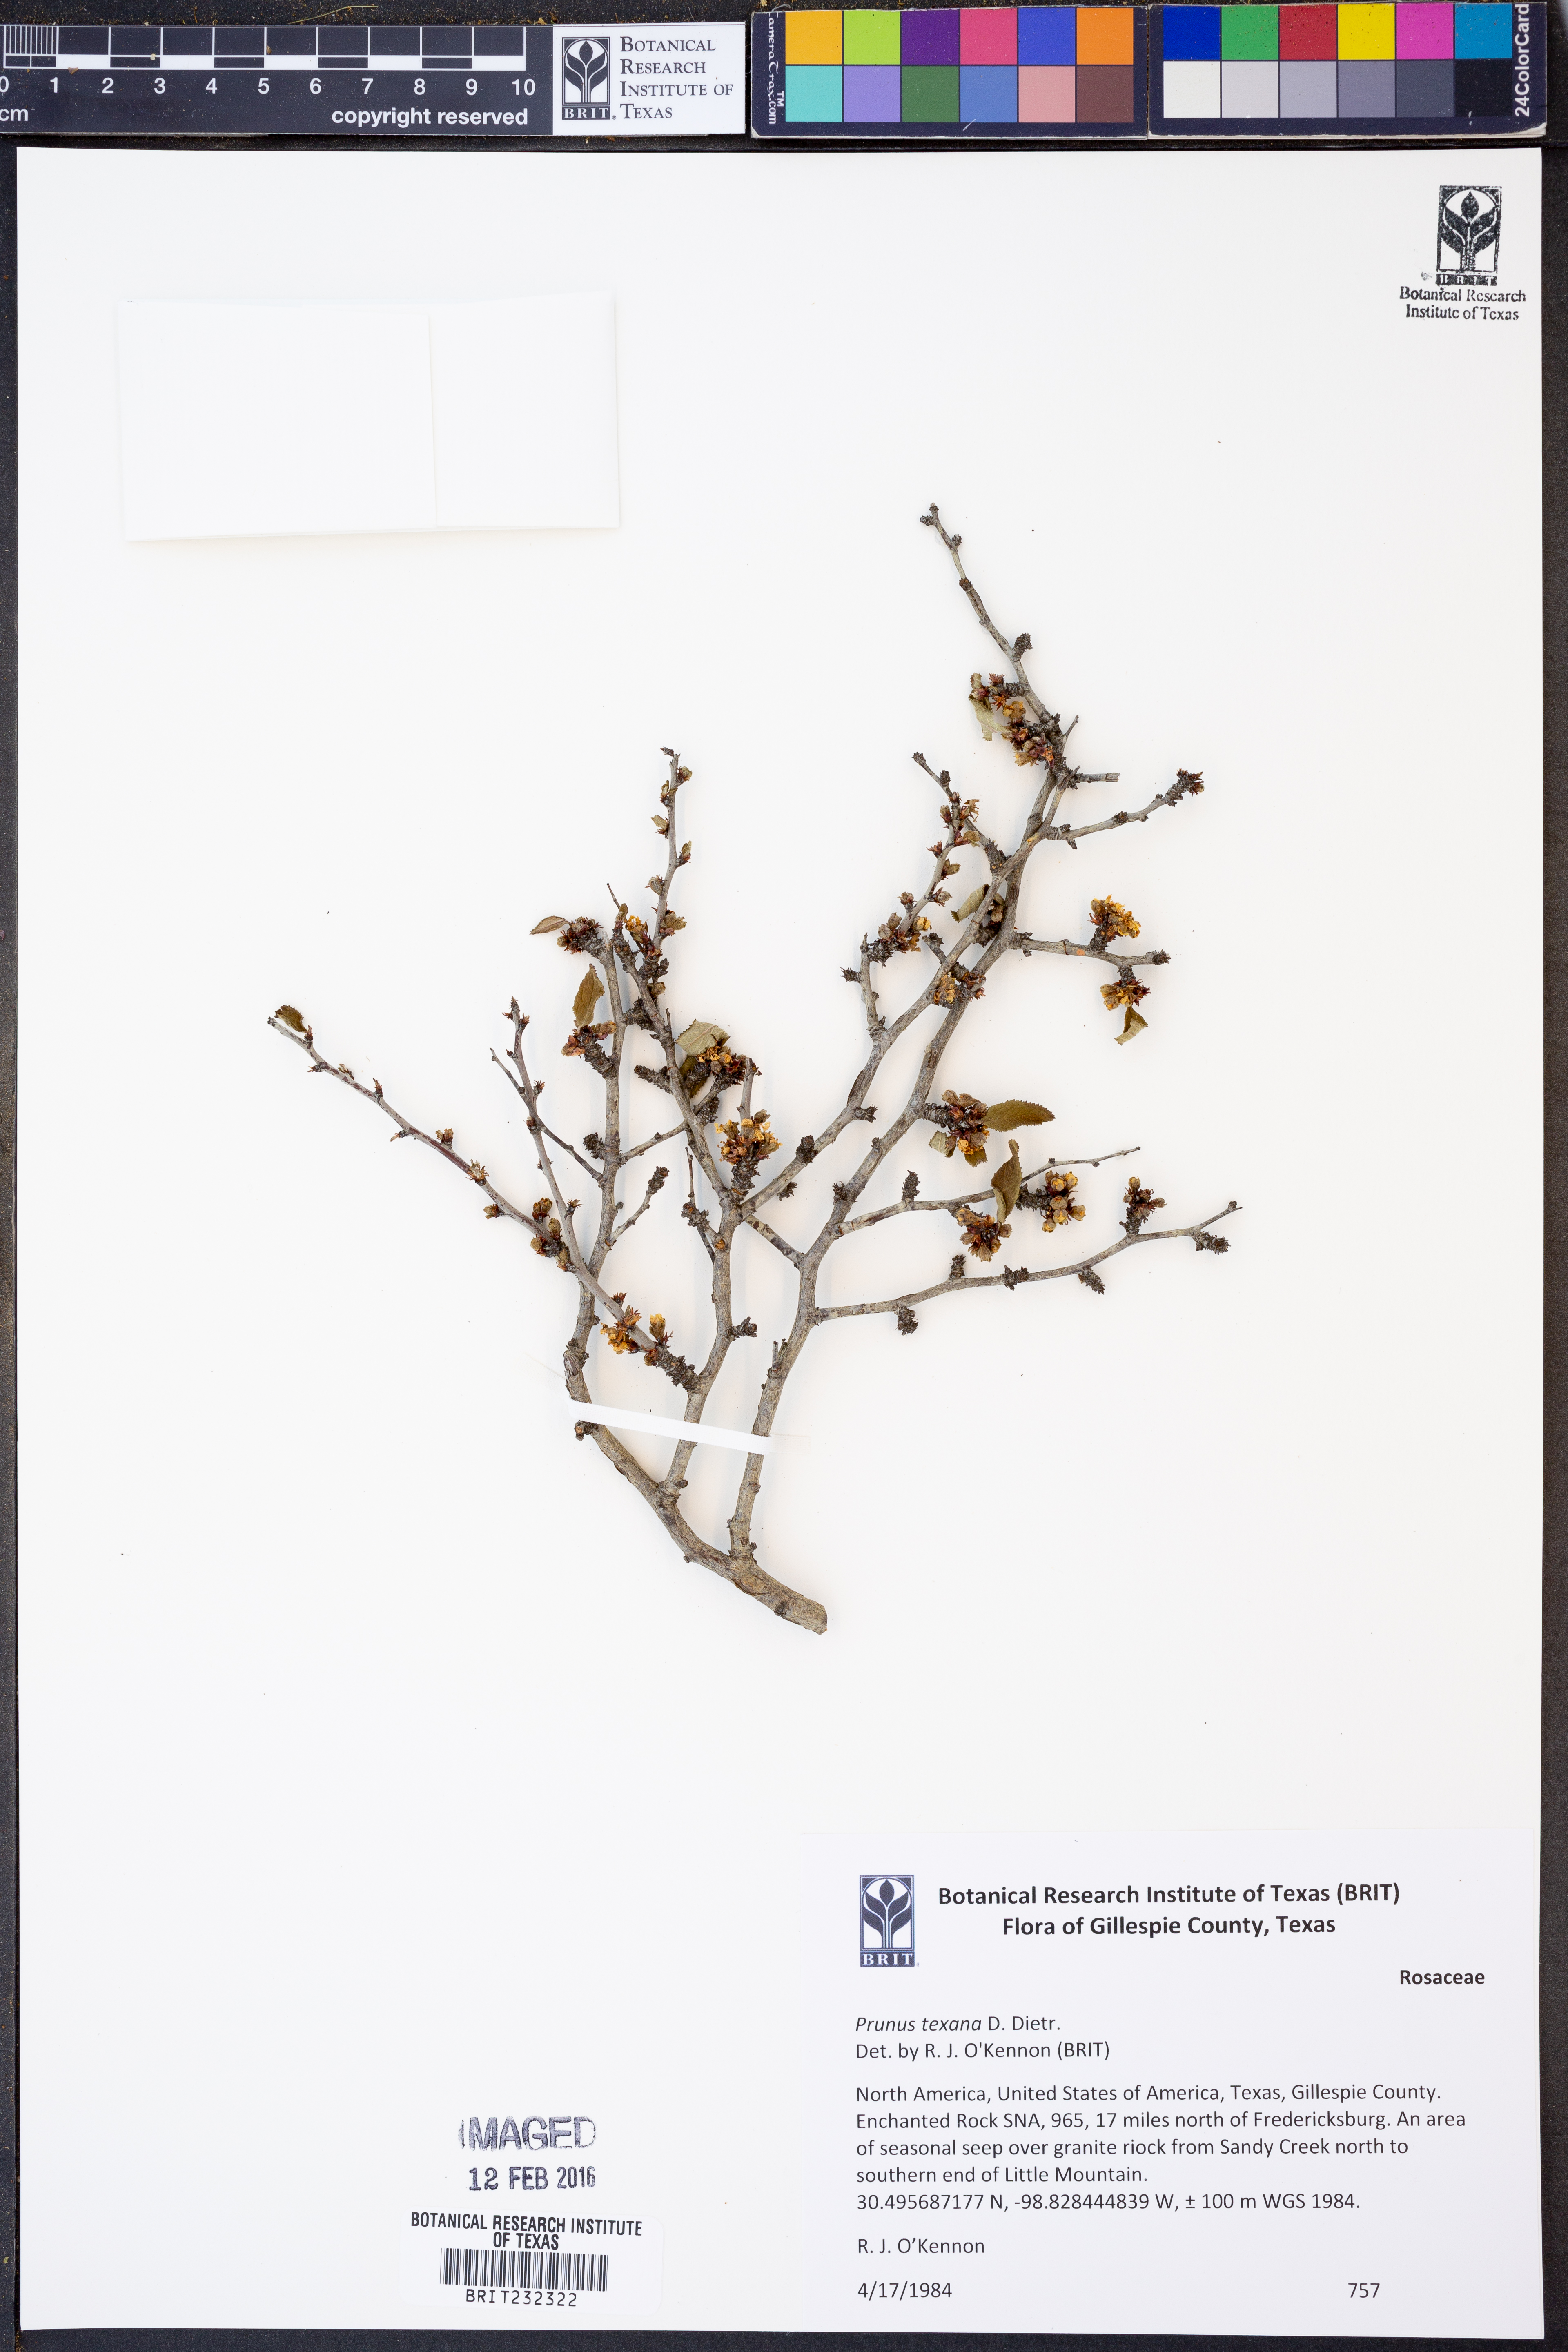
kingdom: Plantae
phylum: Tracheophyta
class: Magnoliopsida
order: Rosales
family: Rosaceae
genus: Prunus
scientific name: Prunus texana
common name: Texas almond cherry
